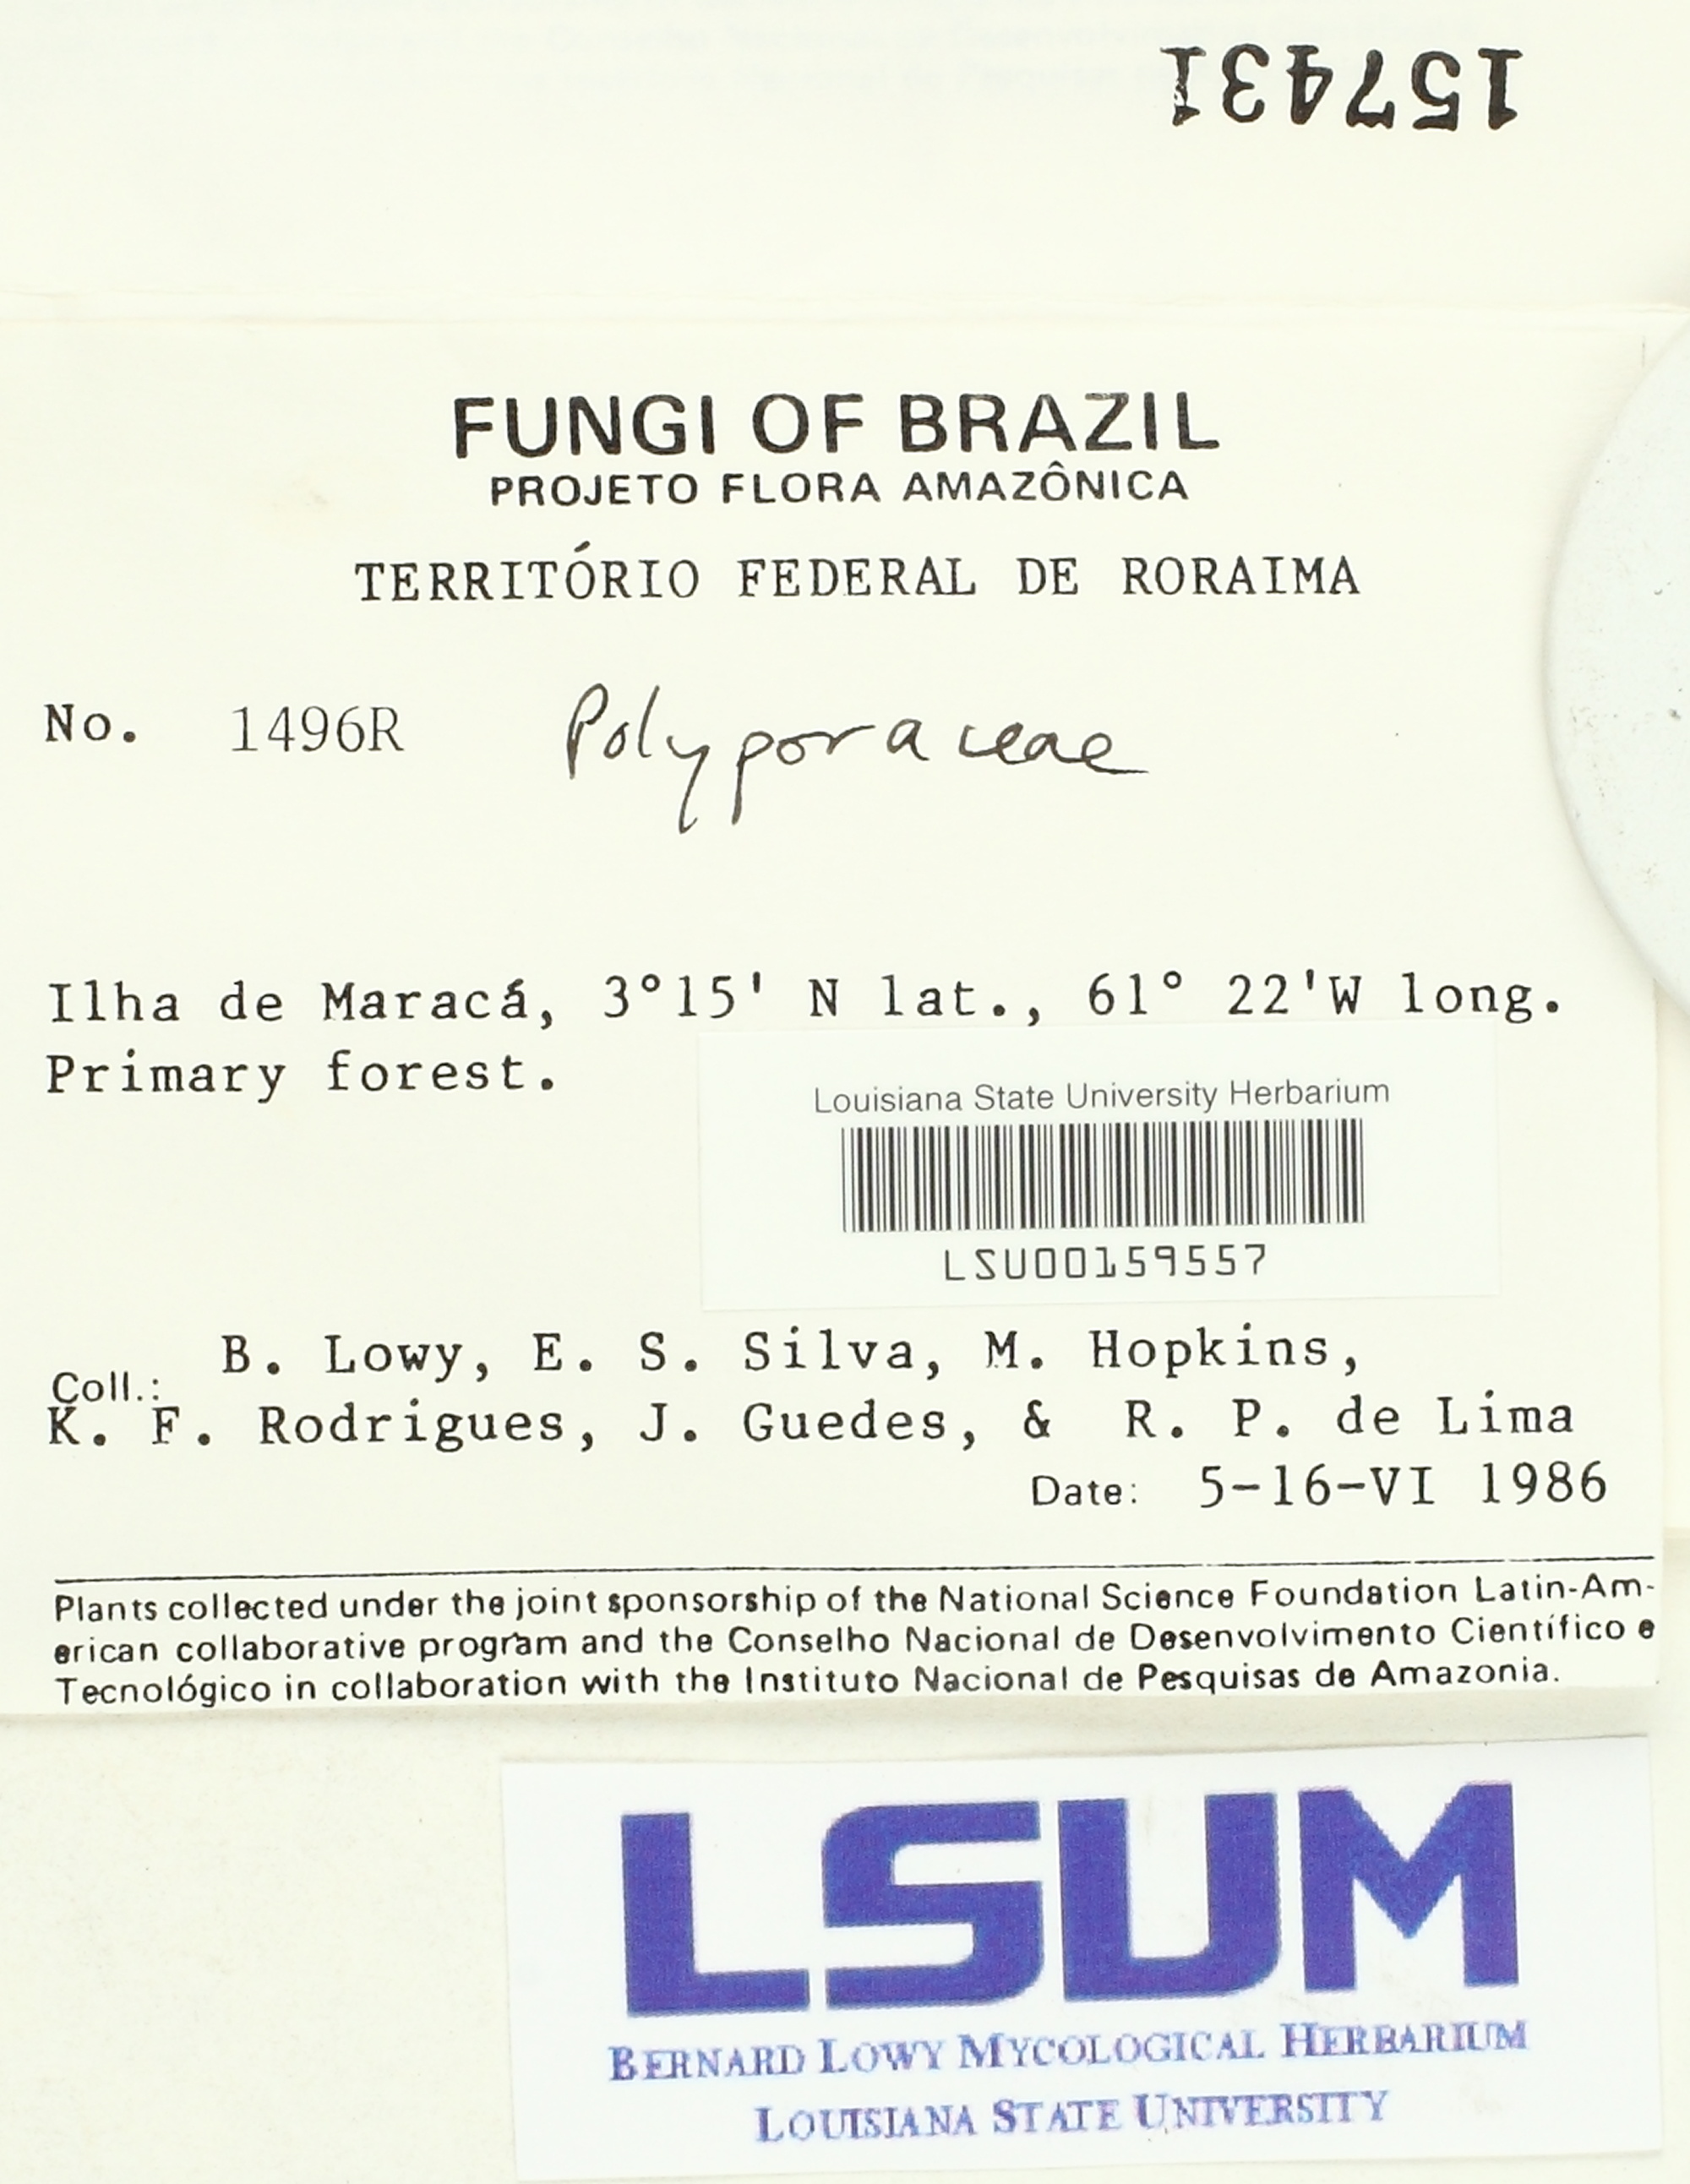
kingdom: Fungi
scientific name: Fungi
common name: Fungi
